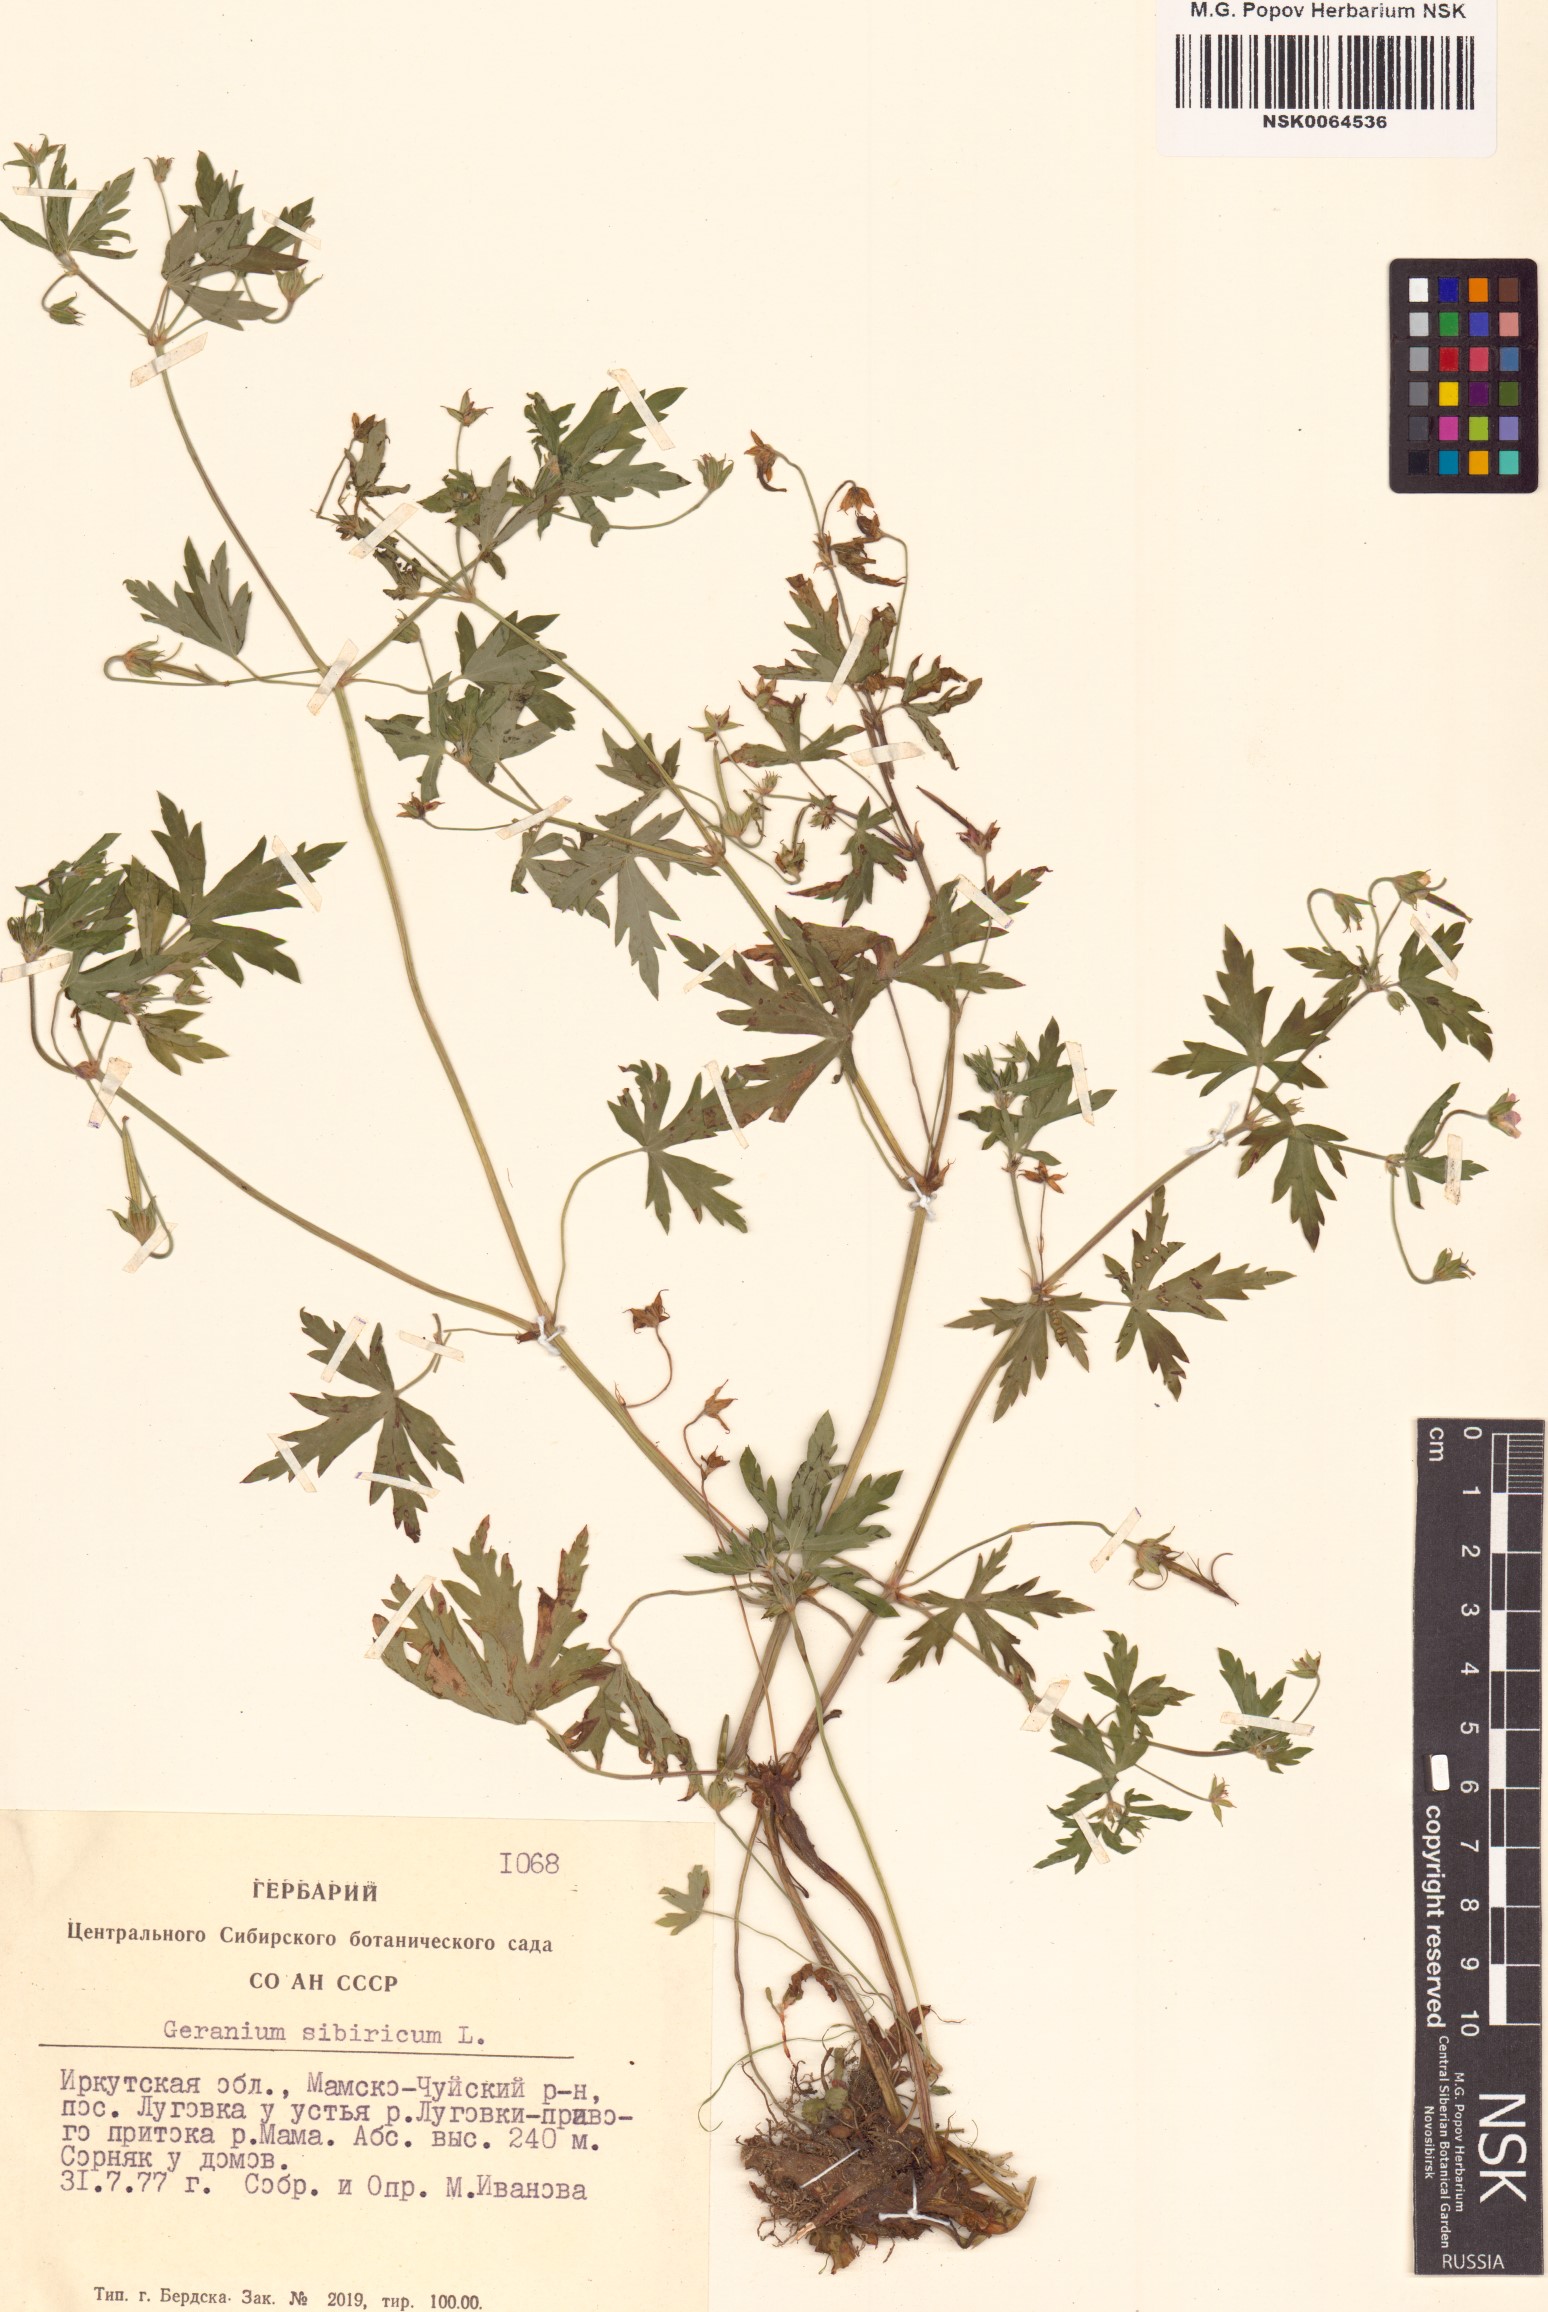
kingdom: Plantae
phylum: Tracheophyta
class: Magnoliopsida
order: Geraniales
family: Geraniaceae
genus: Geranium
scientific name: Geranium sibiricum
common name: Siberian crane's-bill
